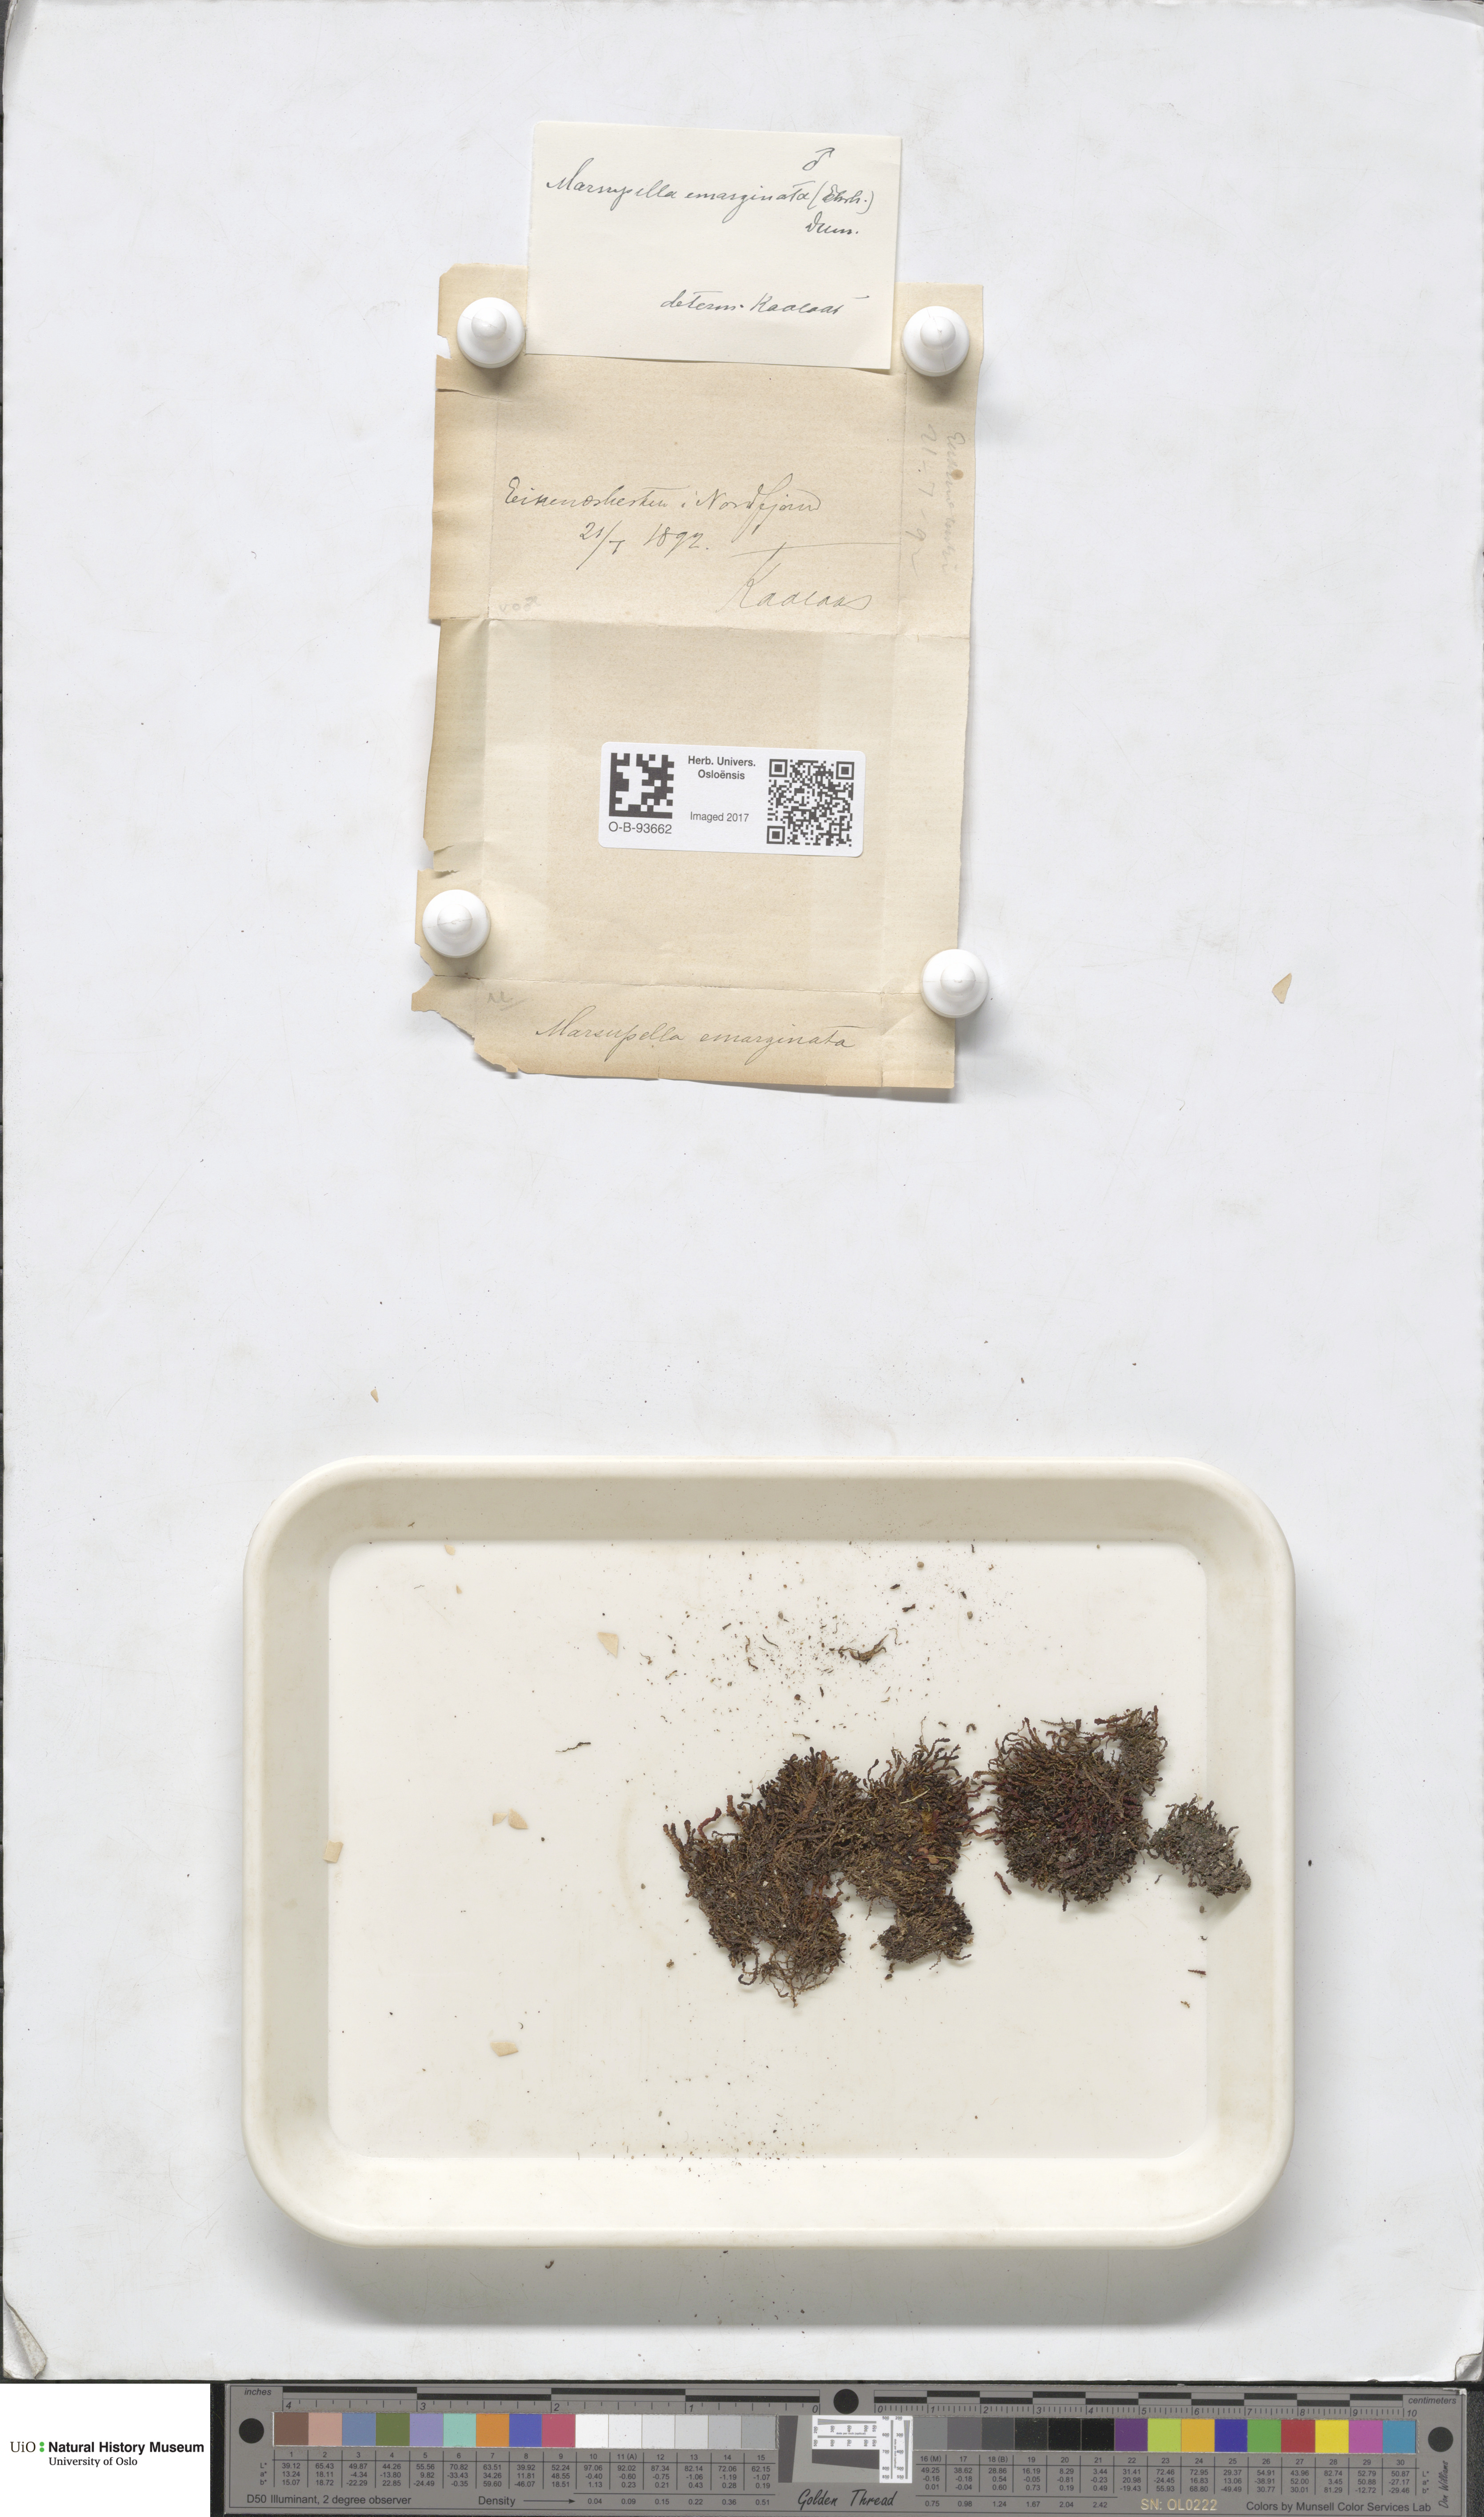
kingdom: Plantae
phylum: Marchantiophyta
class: Jungermanniopsida
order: Jungermanniales
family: Gymnomitriaceae
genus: Marsupella
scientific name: Marsupella emarginata
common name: Notched rustwort
